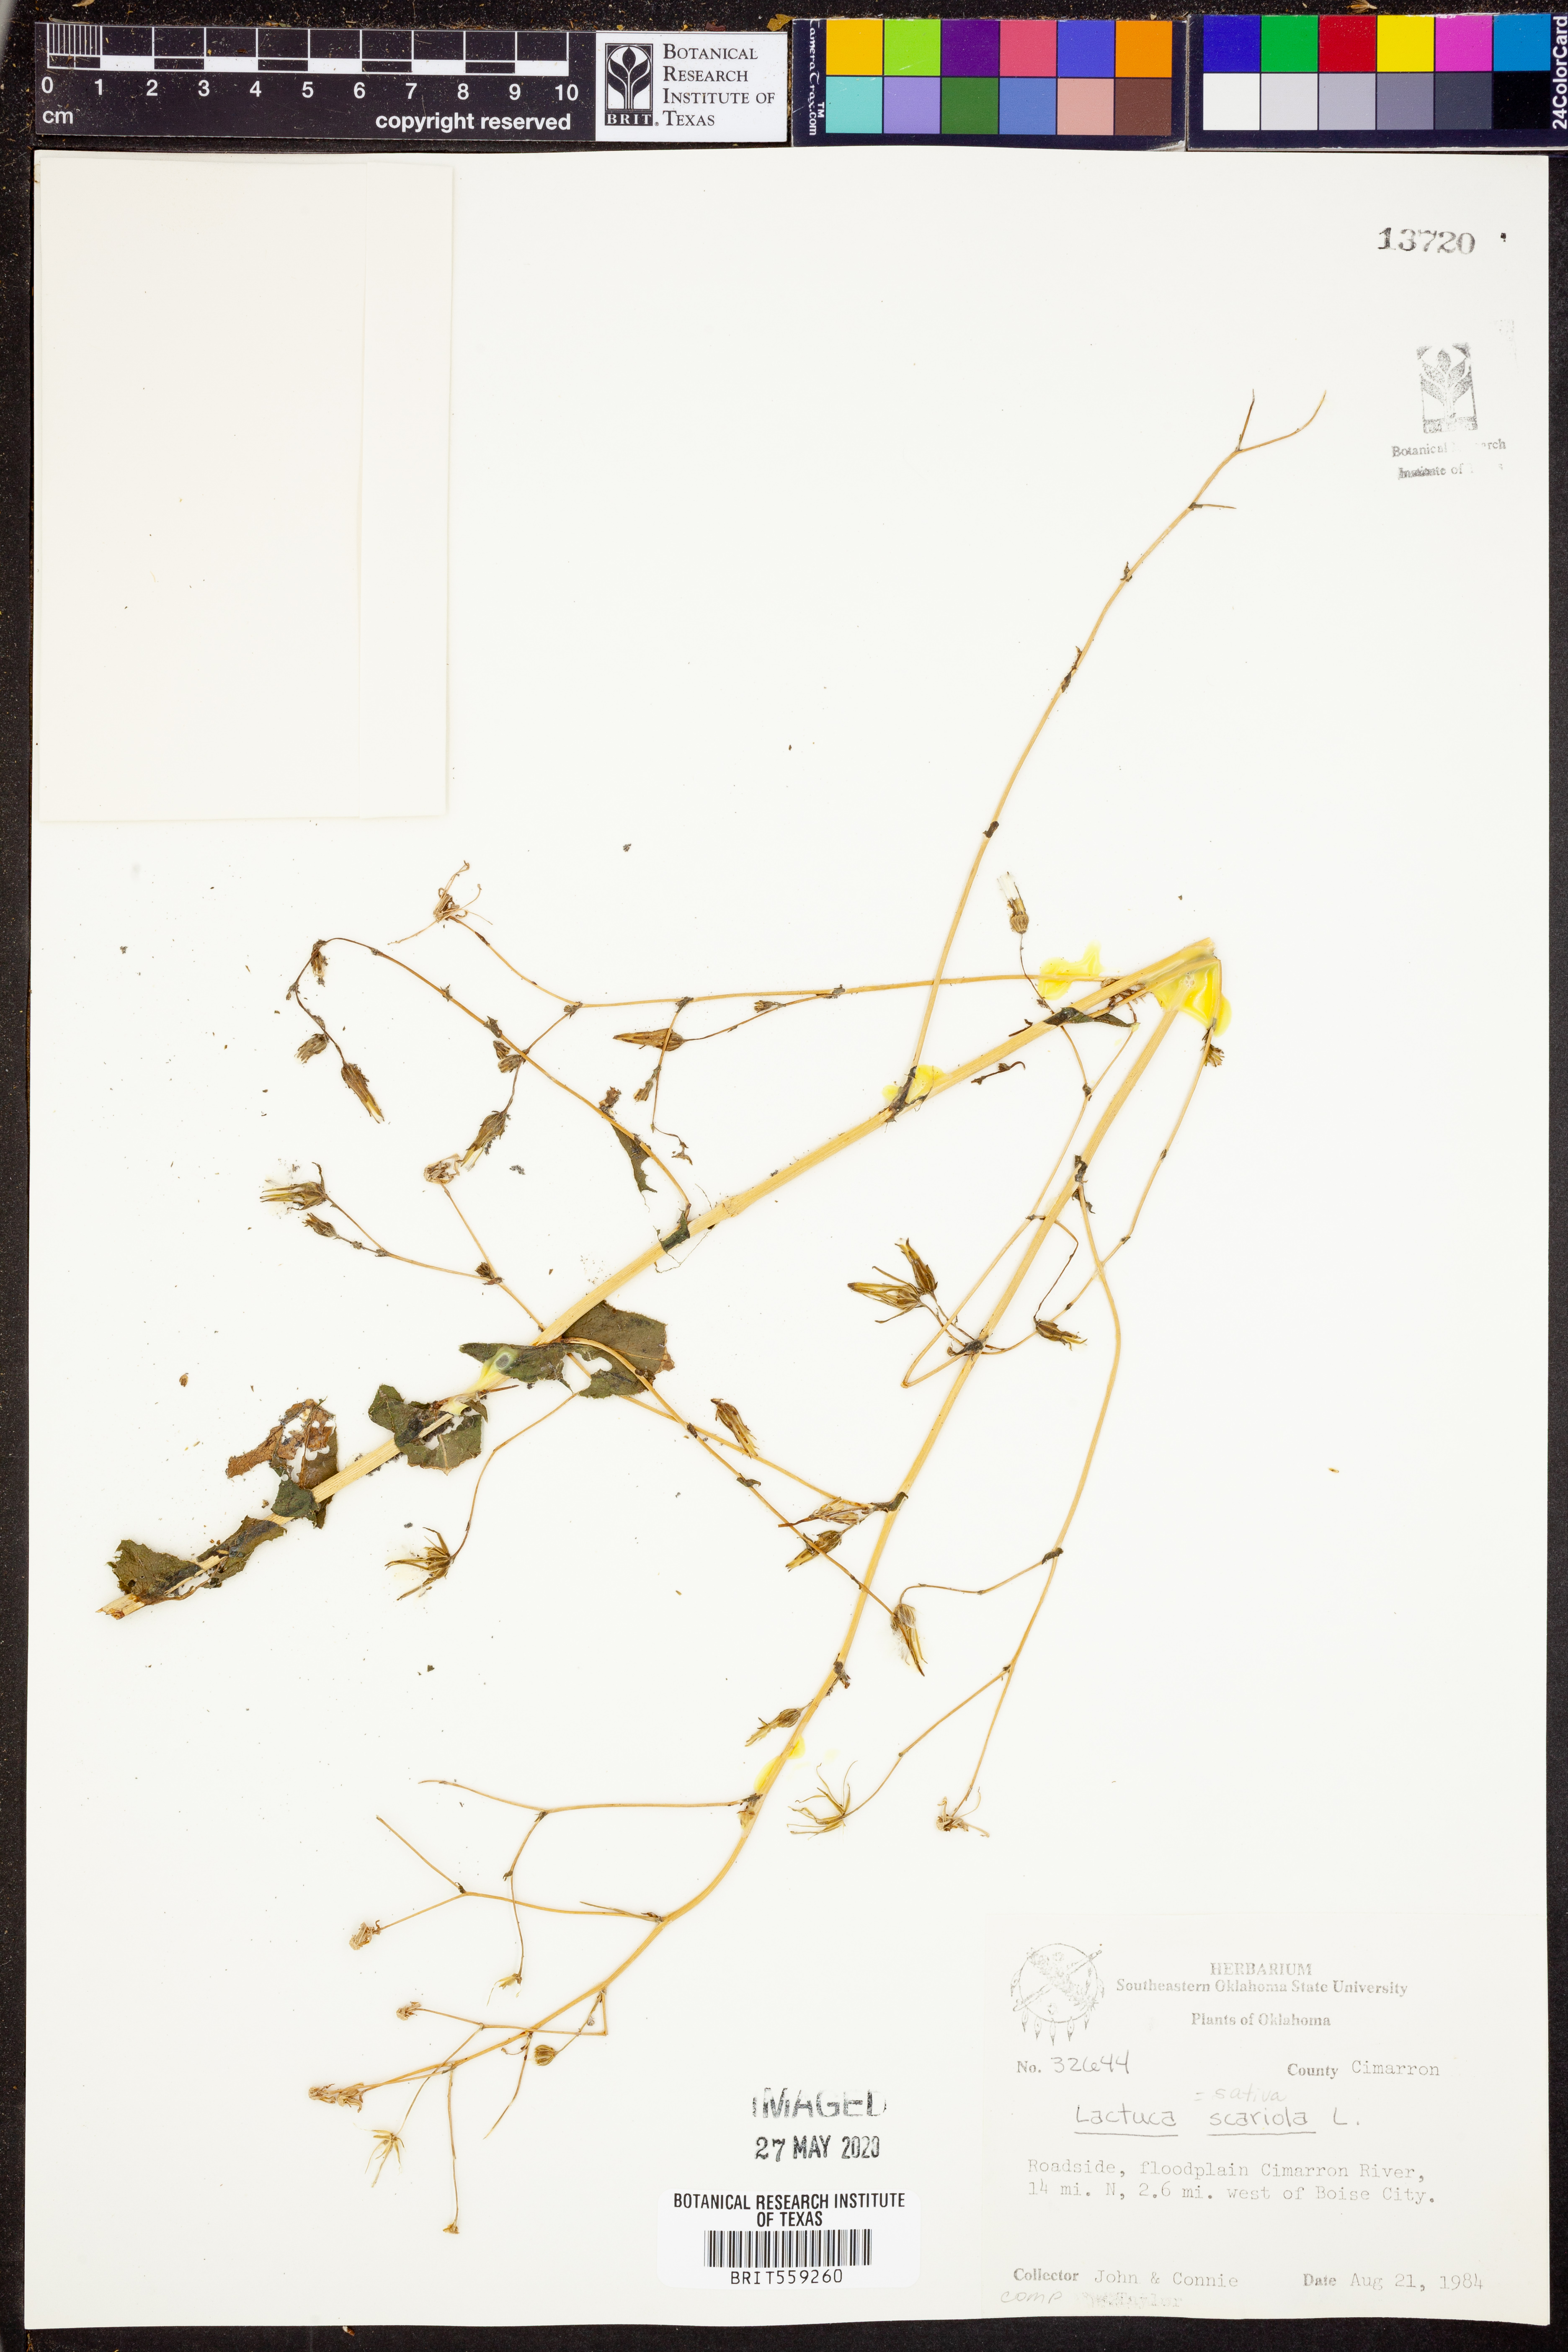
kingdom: Plantae
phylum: Tracheophyta
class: Magnoliopsida
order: Asterales
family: Asteraceae
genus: Lactuca
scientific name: Lactuca sativa
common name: Garden lettuce
